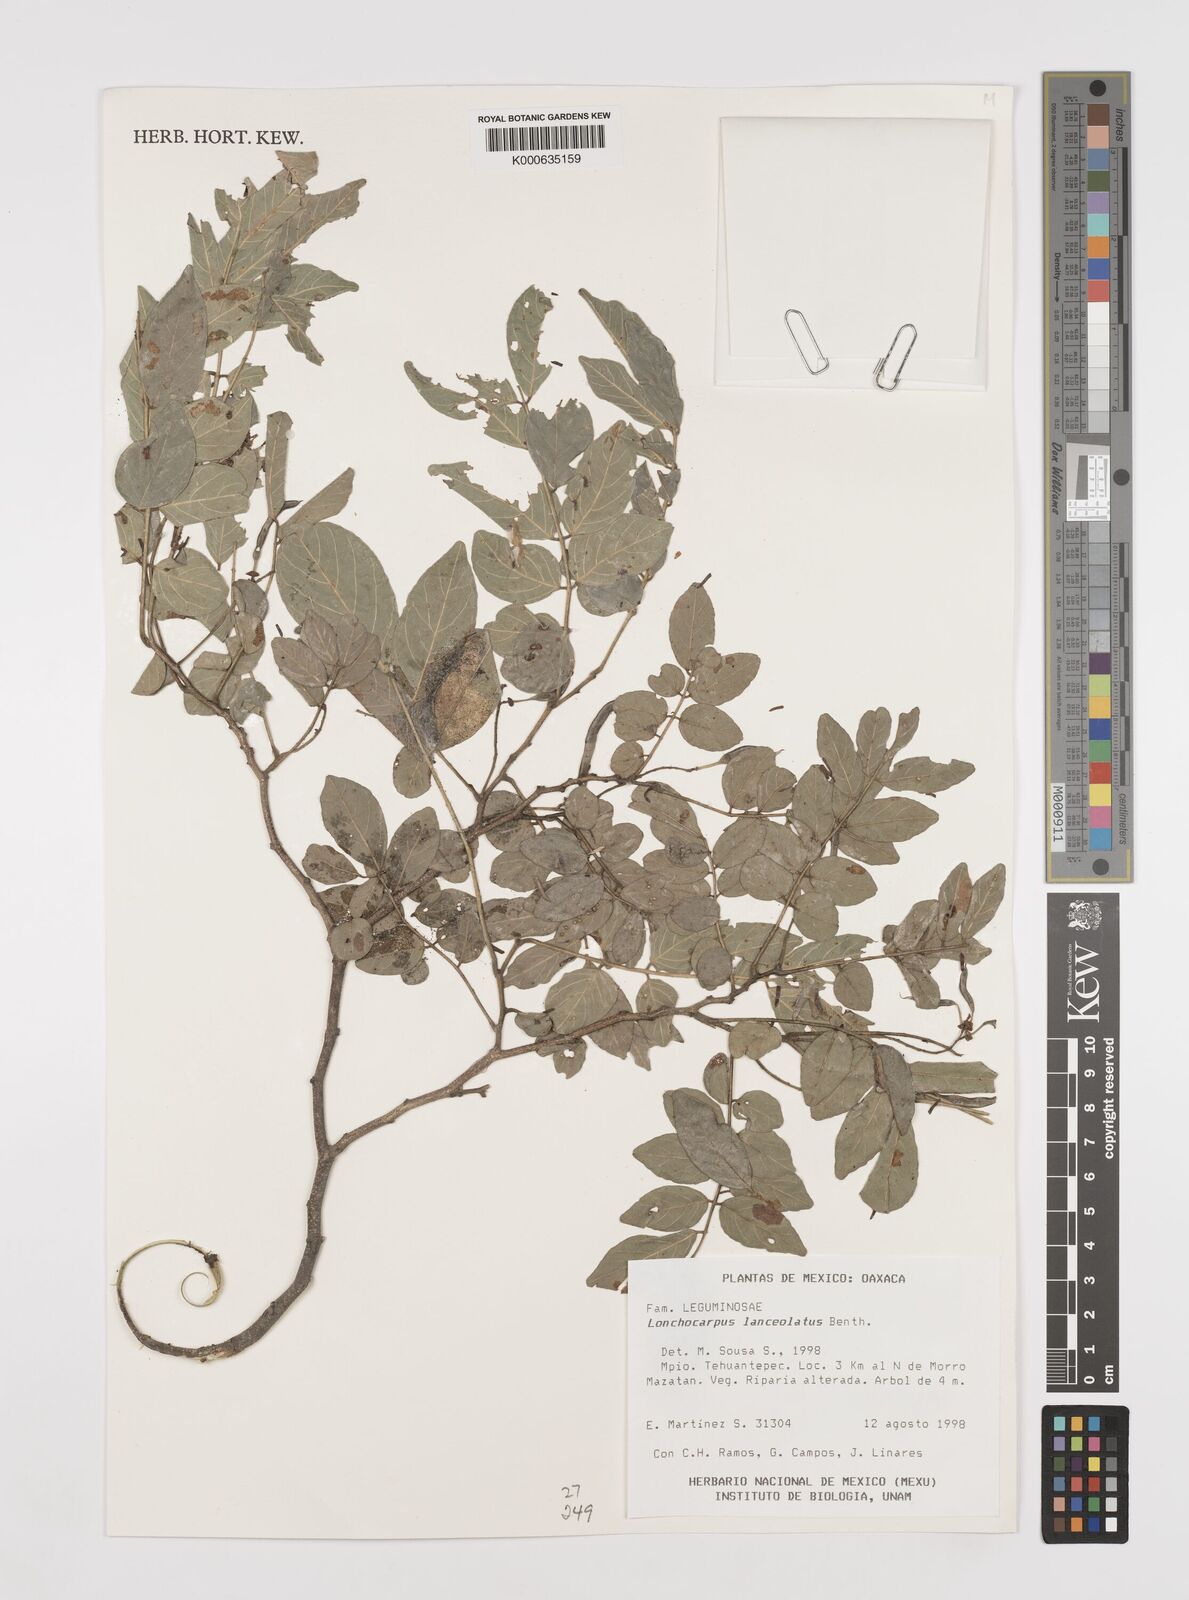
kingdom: Plantae
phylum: Tracheophyta
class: Magnoliopsida
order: Fabales
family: Fabaceae
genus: Lonchocarpus
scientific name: Lonchocarpus lanceolatus
